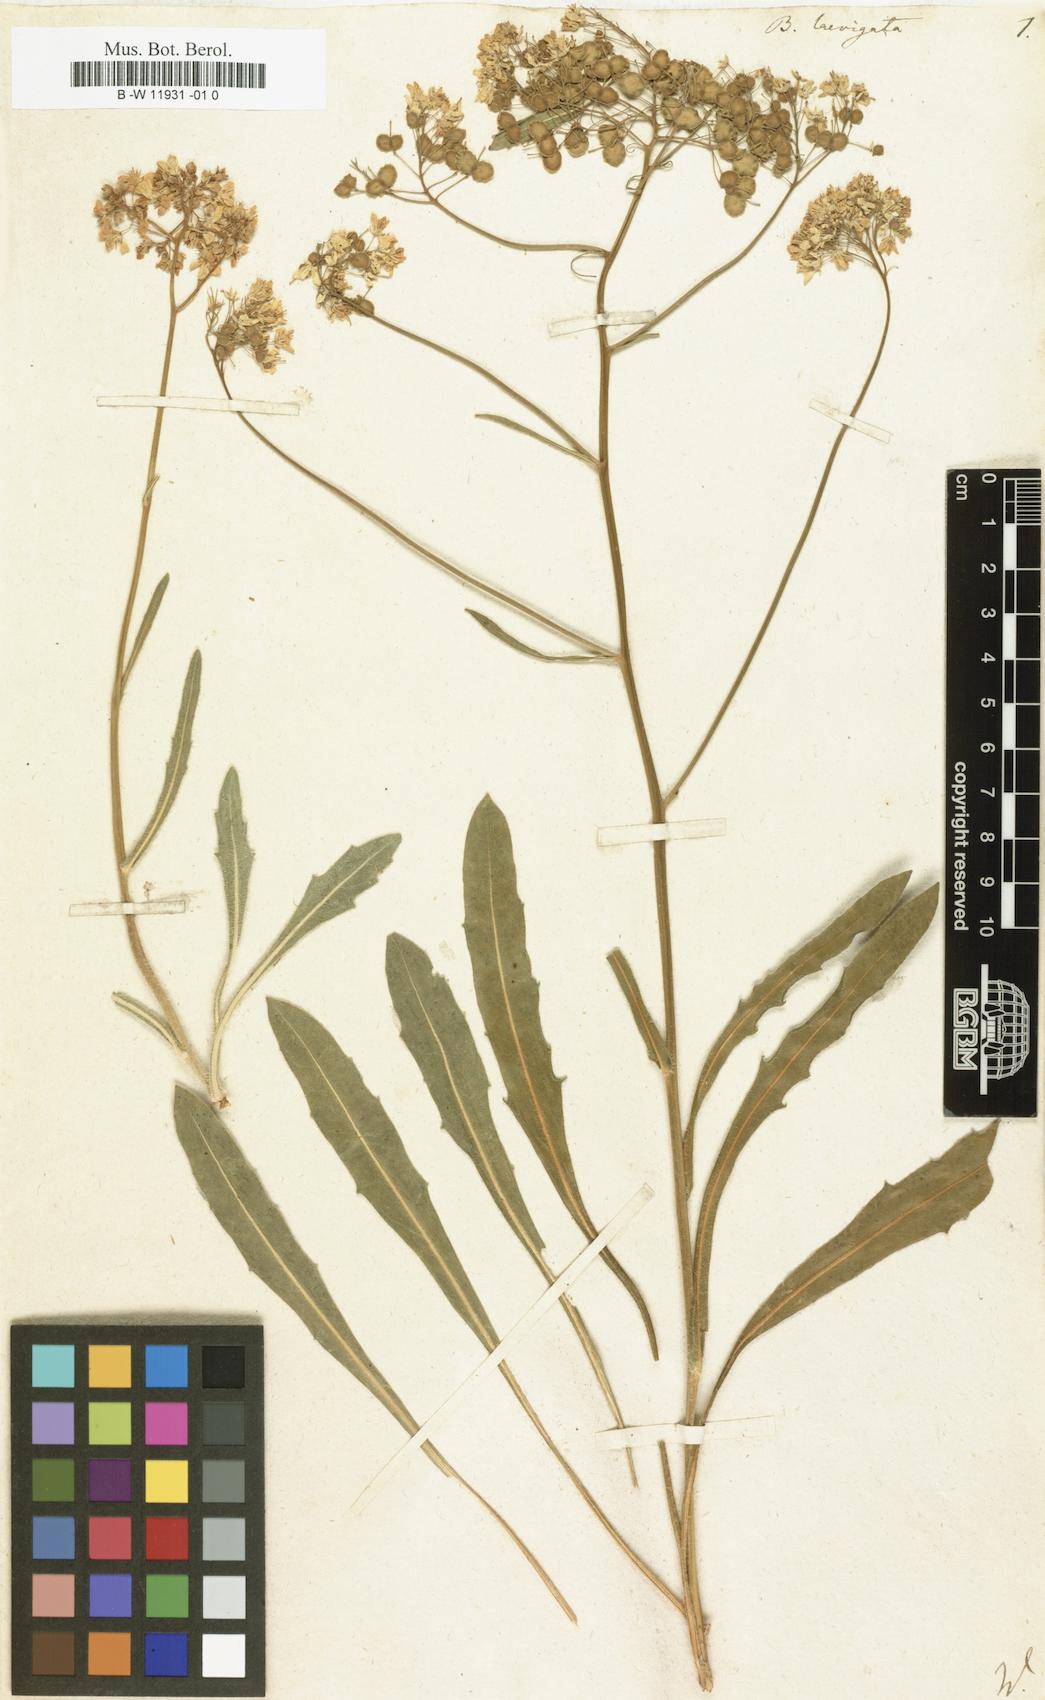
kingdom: Plantae
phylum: Tracheophyta
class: Magnoliopsida
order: Brassicales
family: Brassicaceae
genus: Biscutella
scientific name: Biscutella laevigata
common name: Buckler mustard
